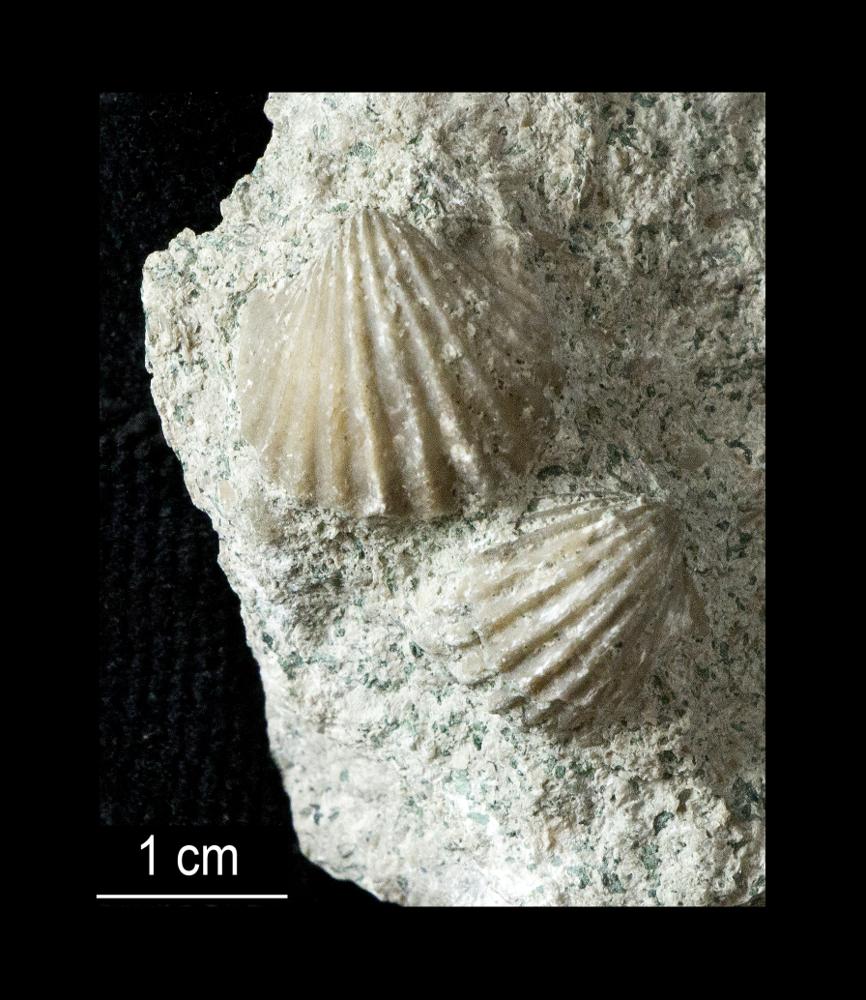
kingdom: Animalia
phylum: Brachiopoda
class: Rhynchonellata
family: Orthidae
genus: Glossorthis
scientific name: Glossorthis Orthis schmidti
